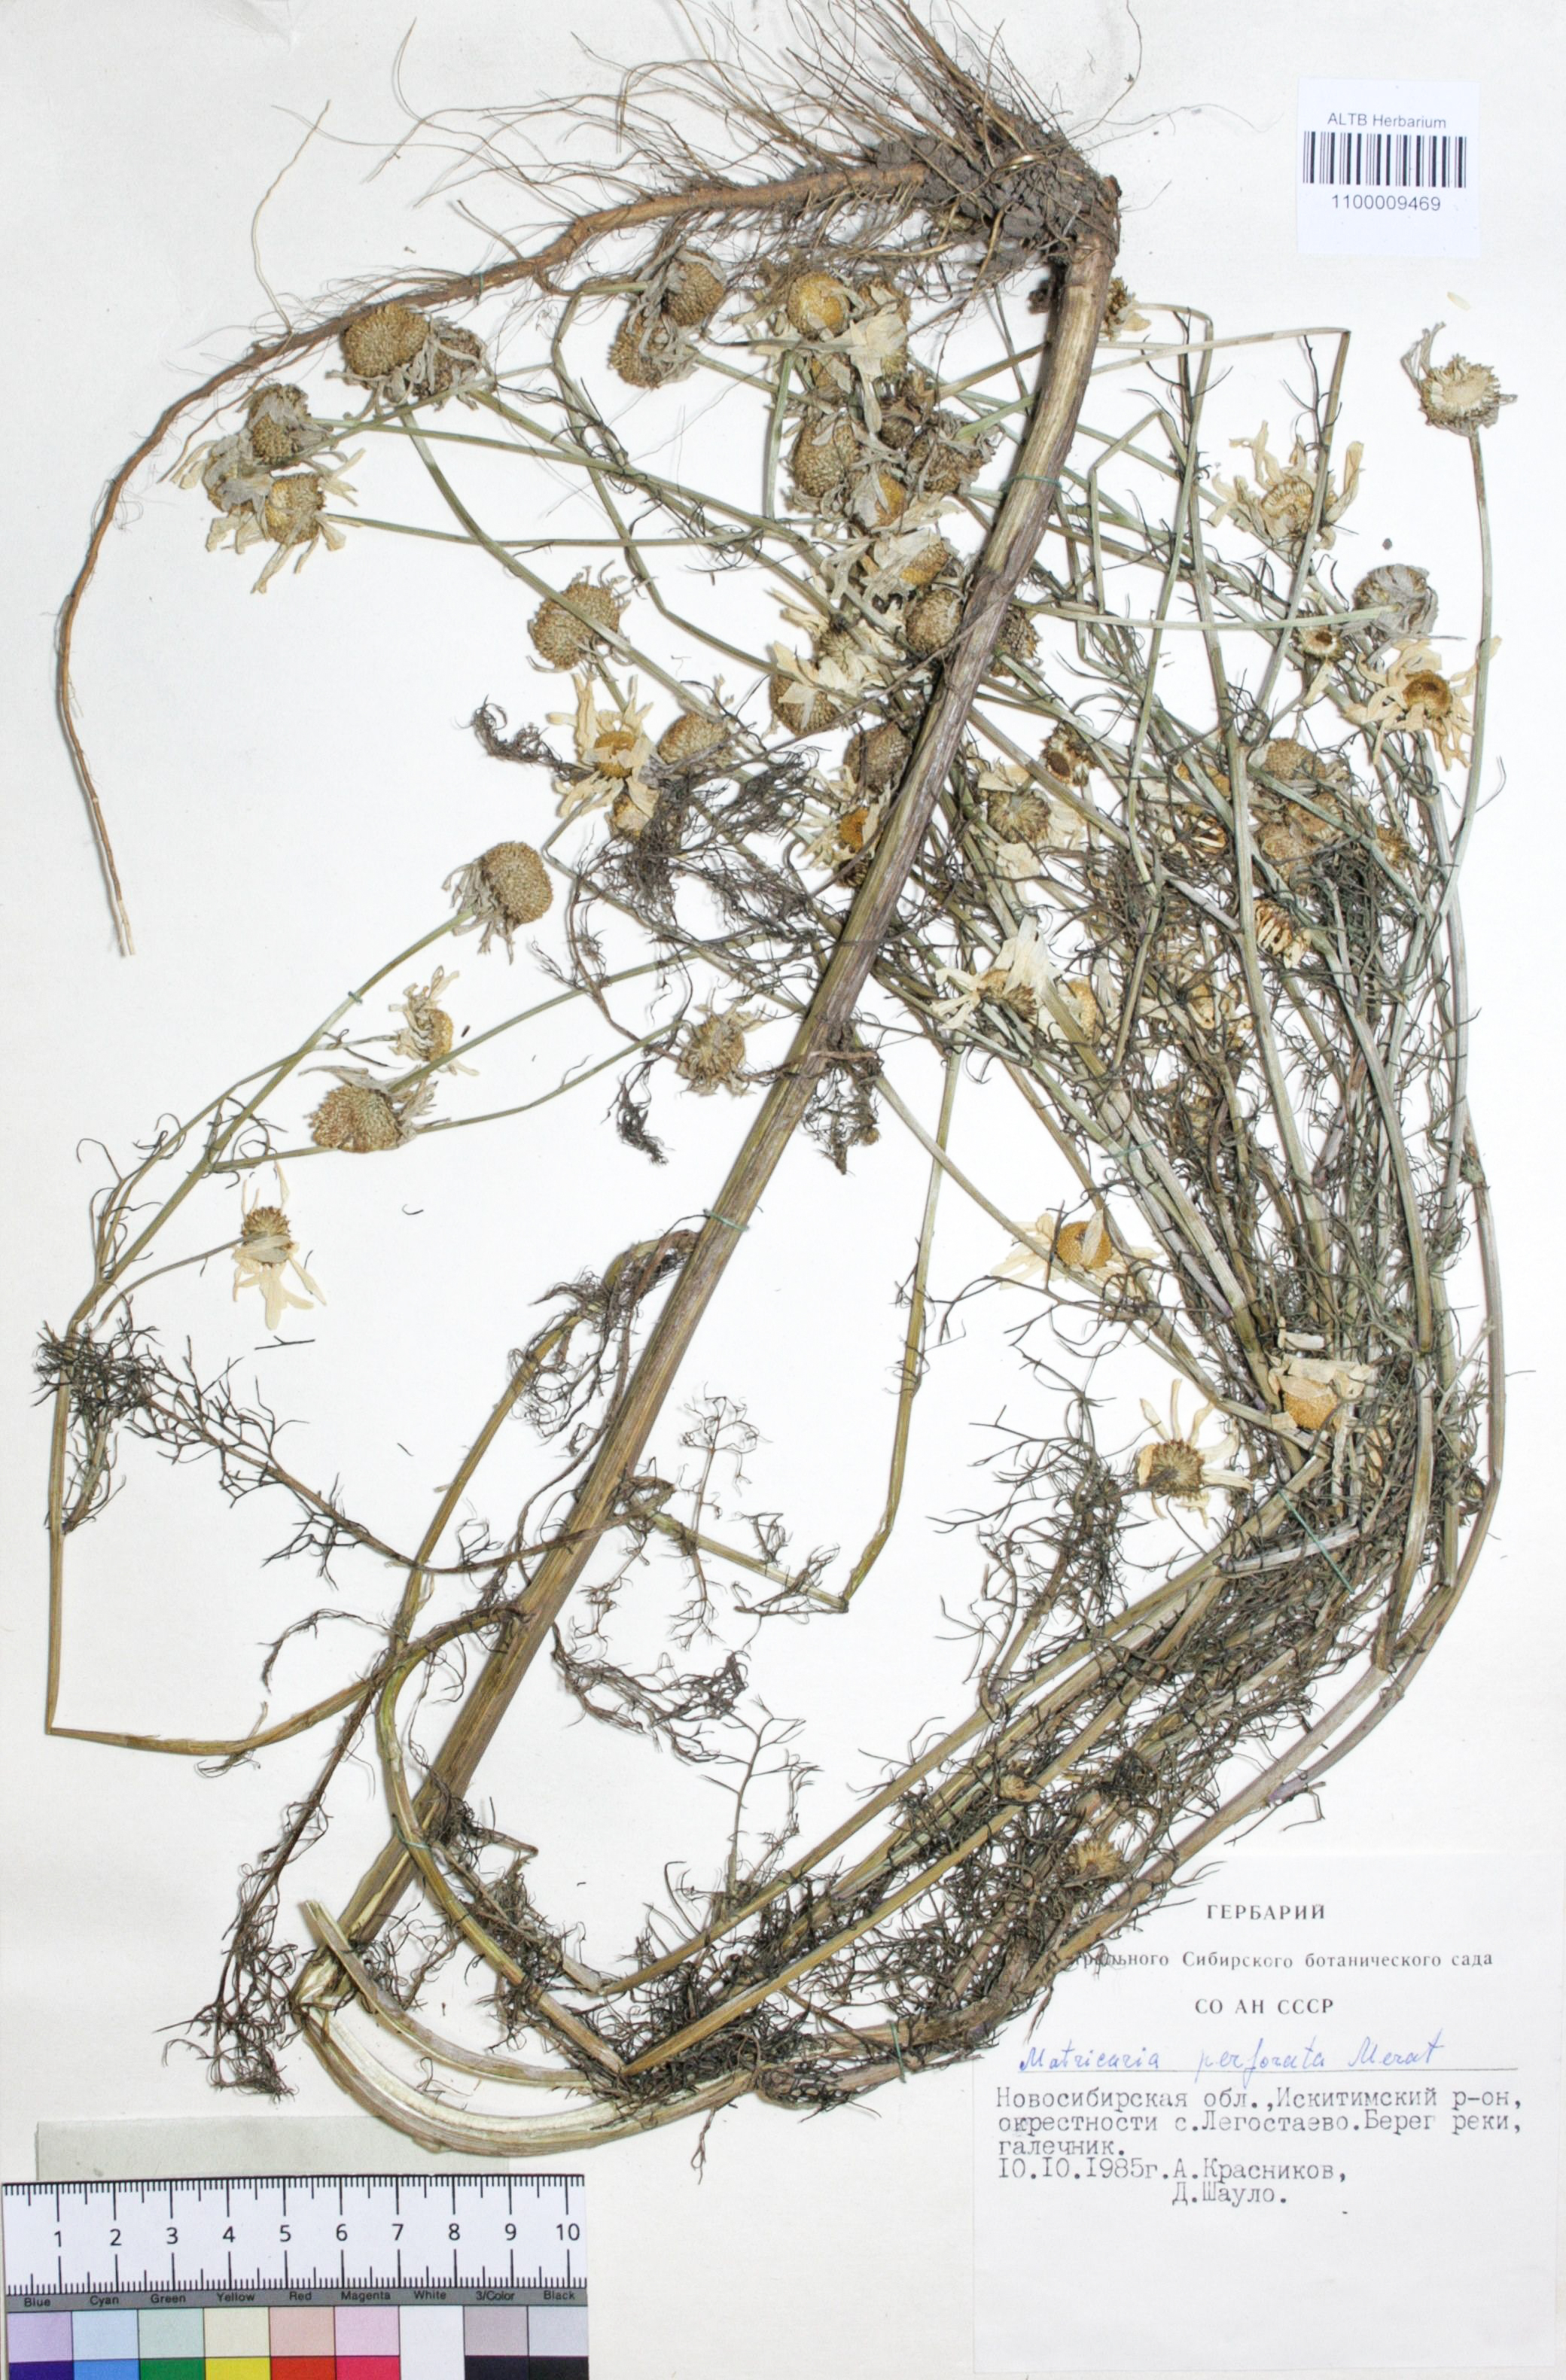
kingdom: Plantae
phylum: Tracheophyta
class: Magnoliopsida
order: Asterales
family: Asteraceae
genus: Tripleurospermum
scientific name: Tripleurospermum inodorum
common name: Scentless mayweed
